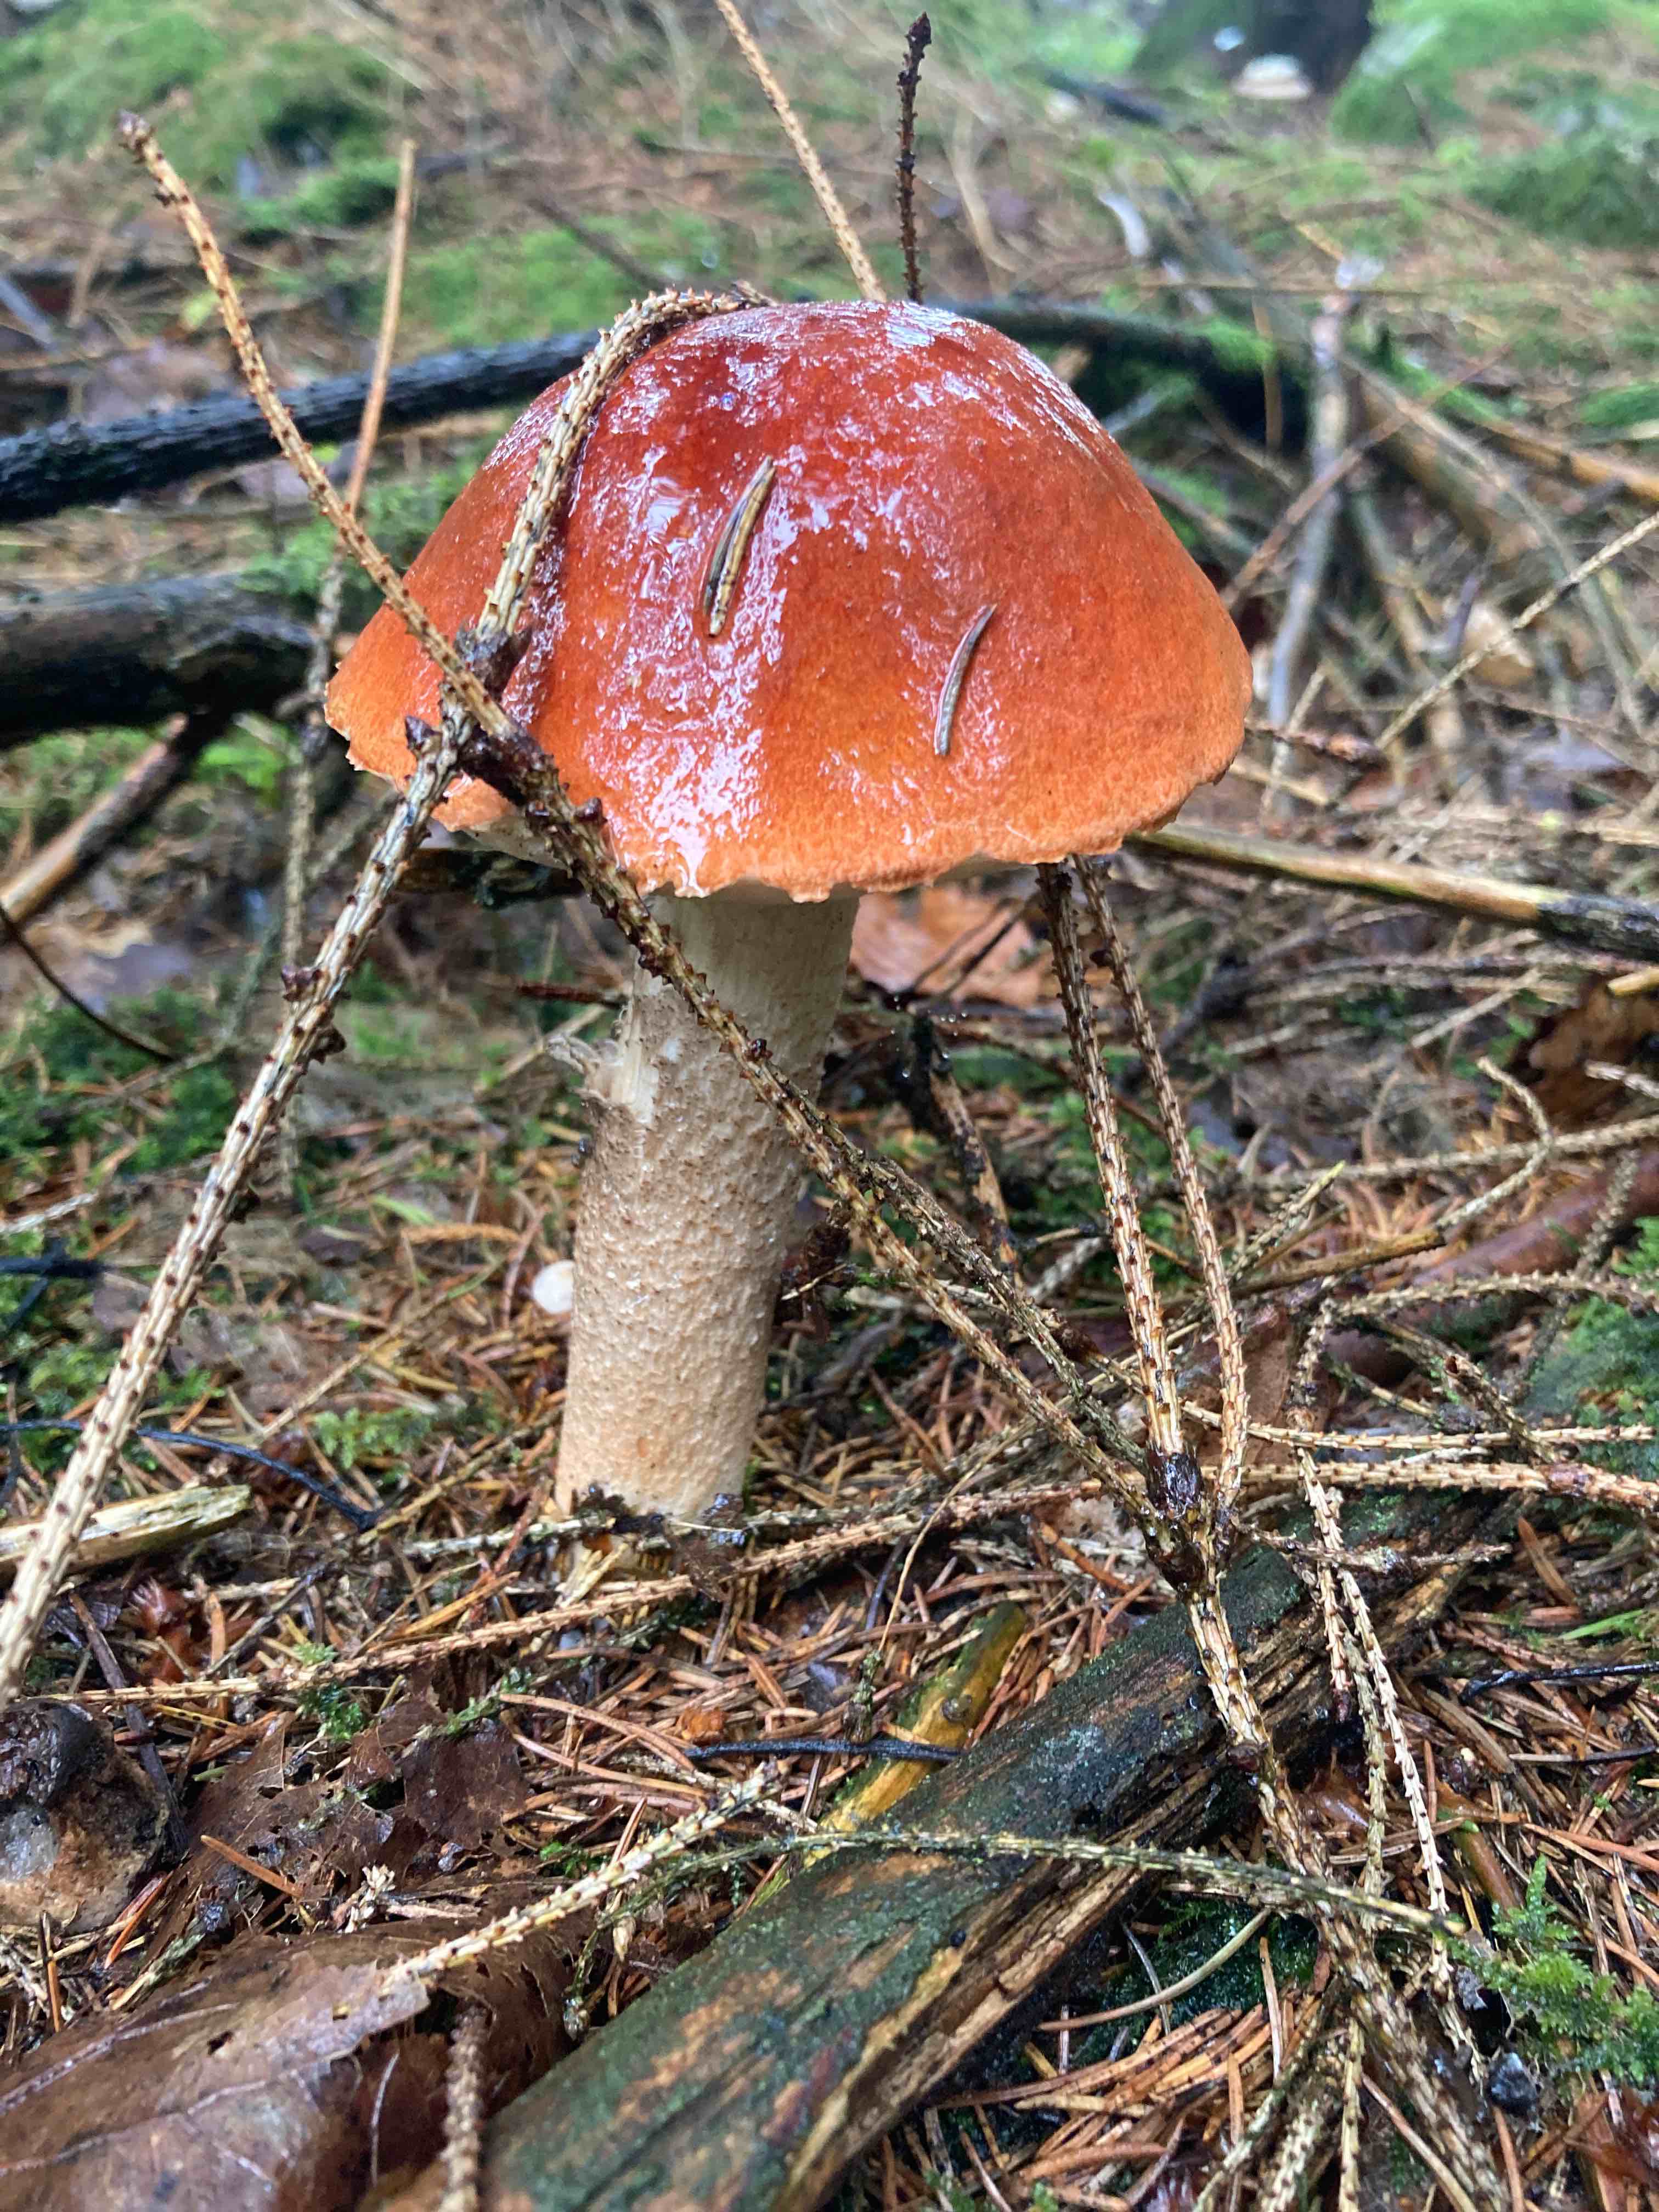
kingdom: Fungi
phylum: Basidiomycota
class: Agaricomycetes
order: Boletales
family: Boletaceae
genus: Leccinum
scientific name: Leccinum
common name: skælrørhat
